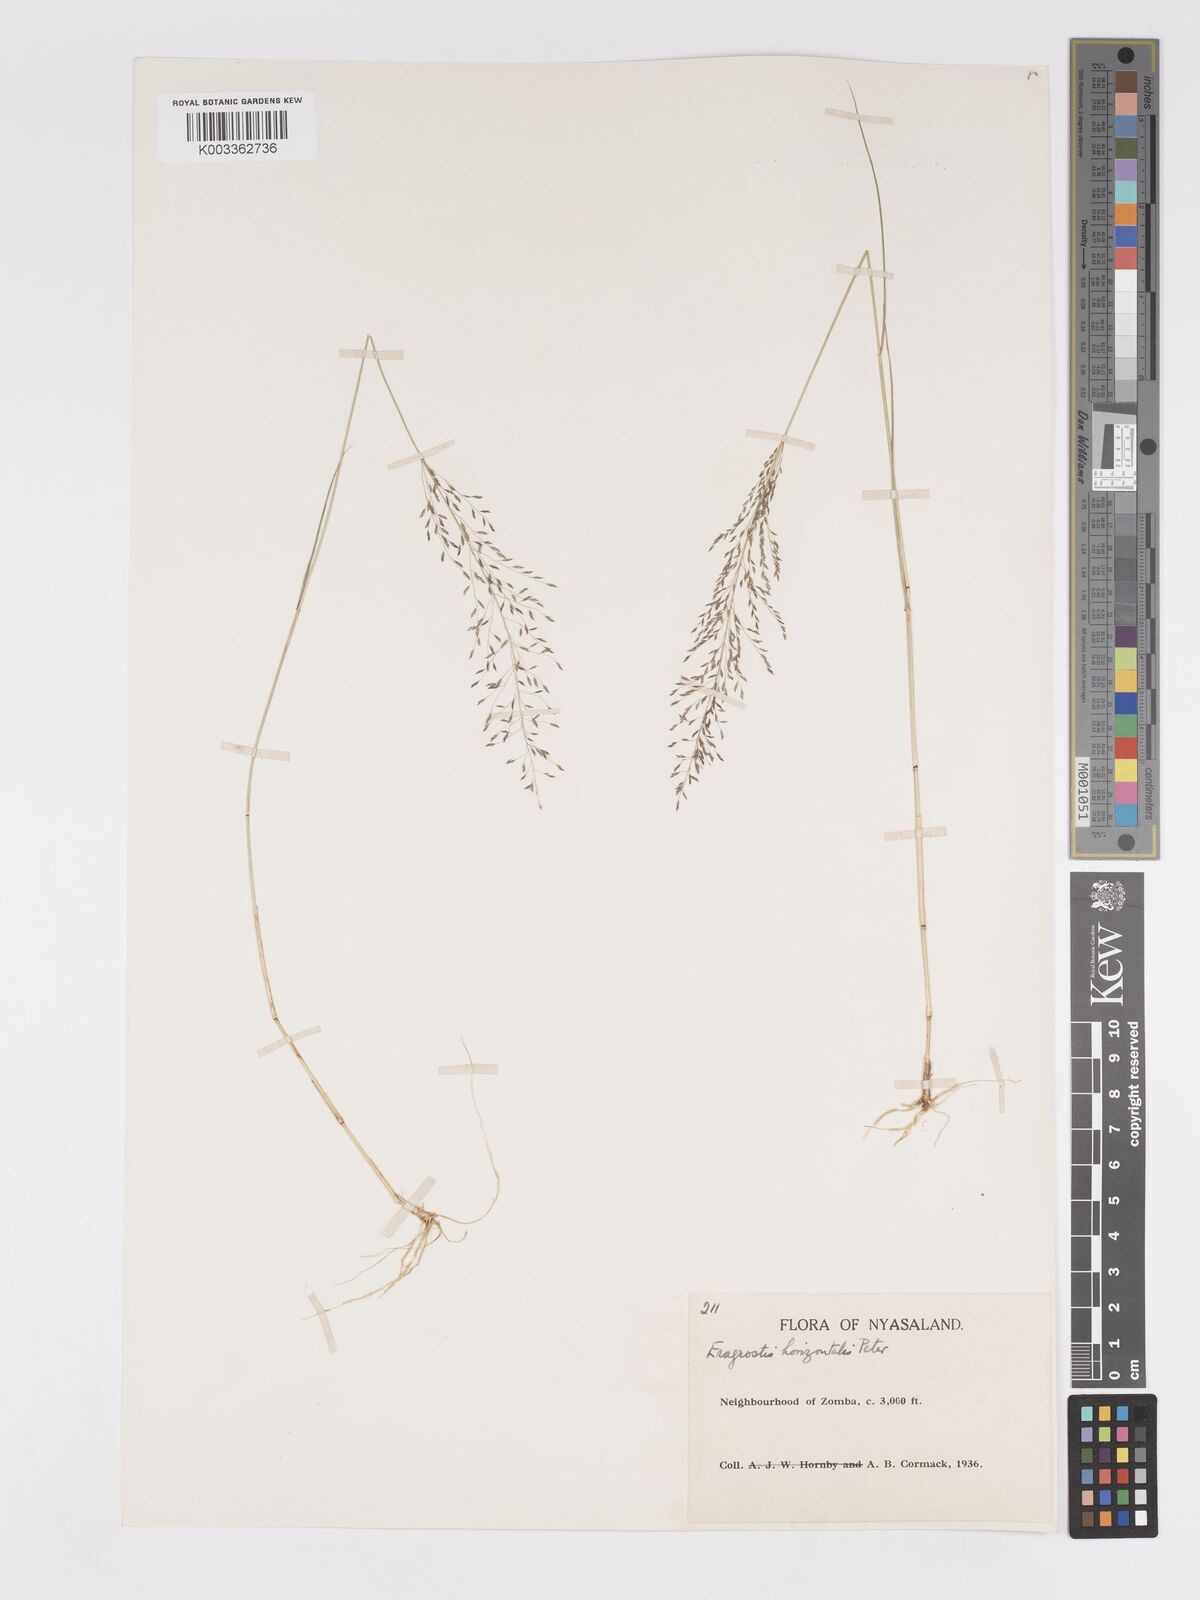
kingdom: Plantae
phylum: Tracheophyta
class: Liliopsida
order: Poales
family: Poaceae
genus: Eragrostis
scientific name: Eragrostis cylindriflora
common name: Cylinderflower lovegrass
